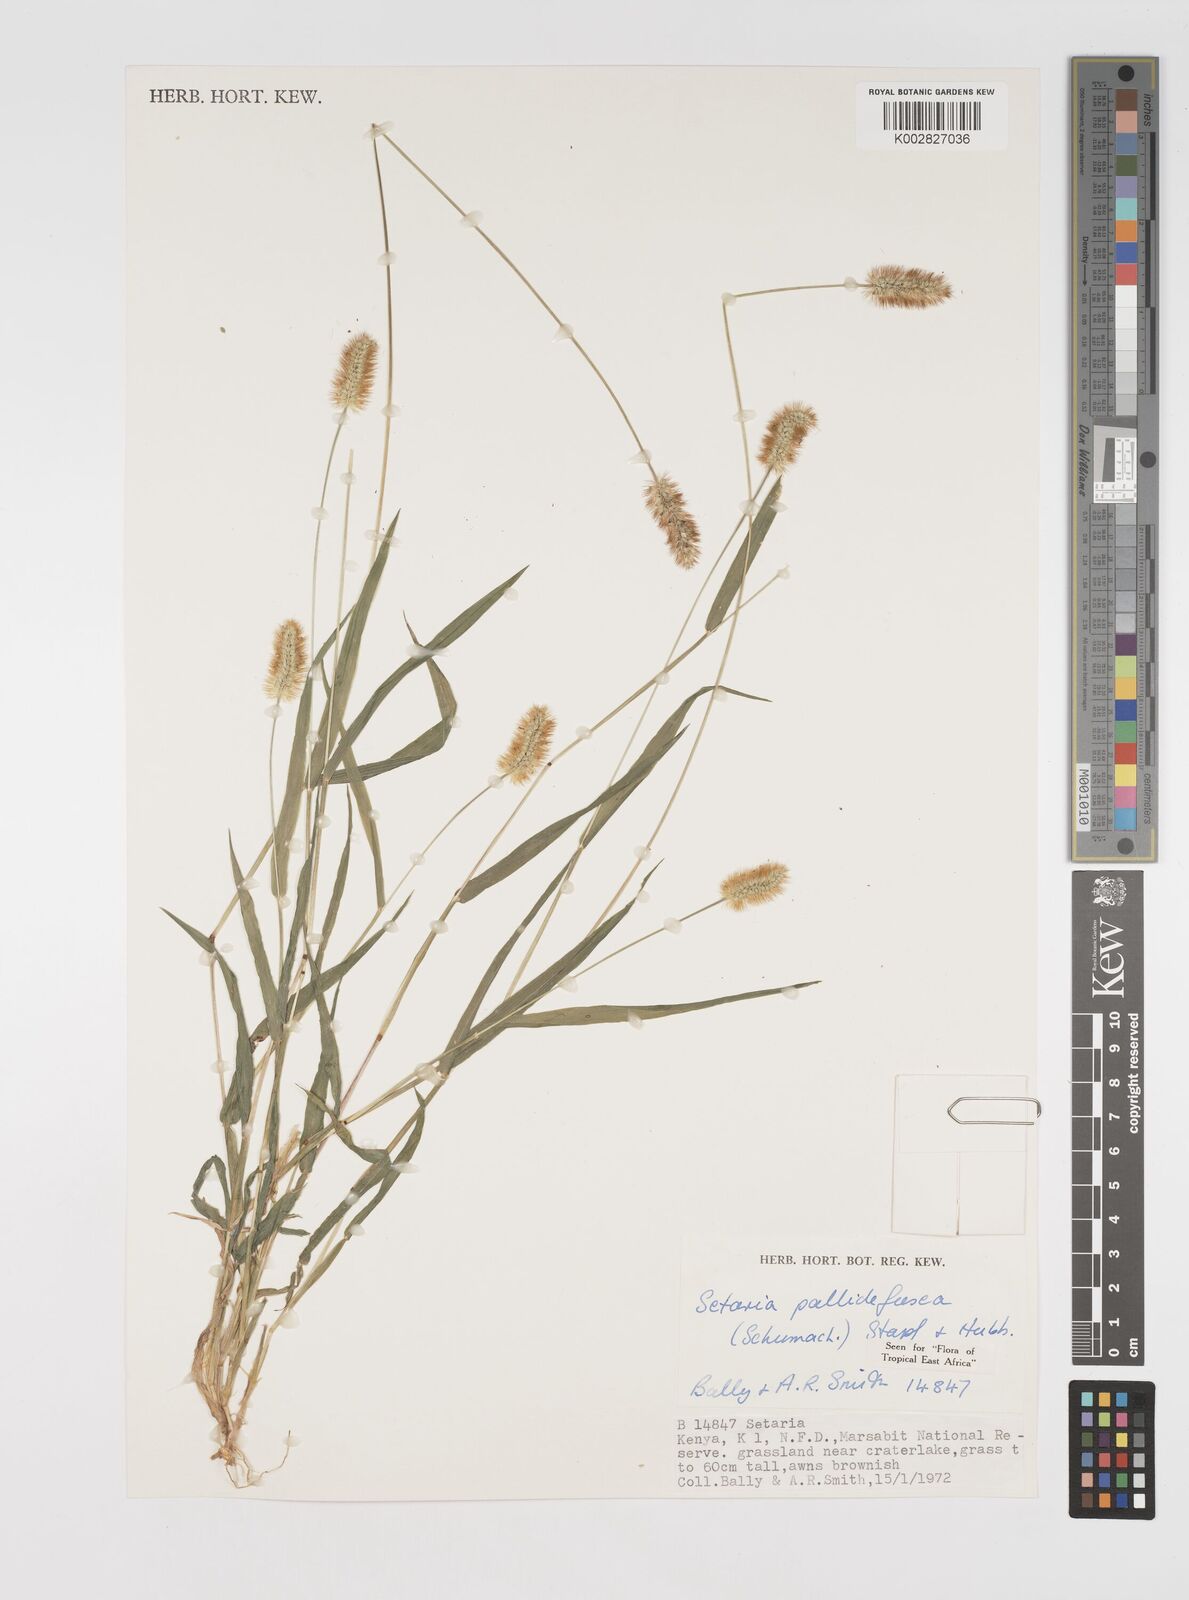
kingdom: Plantae
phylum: Tracheophyta
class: Liliopsida
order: Poales
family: Poaceae
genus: Setaria
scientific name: Setaria pumila
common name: Yellow bristle-grass
